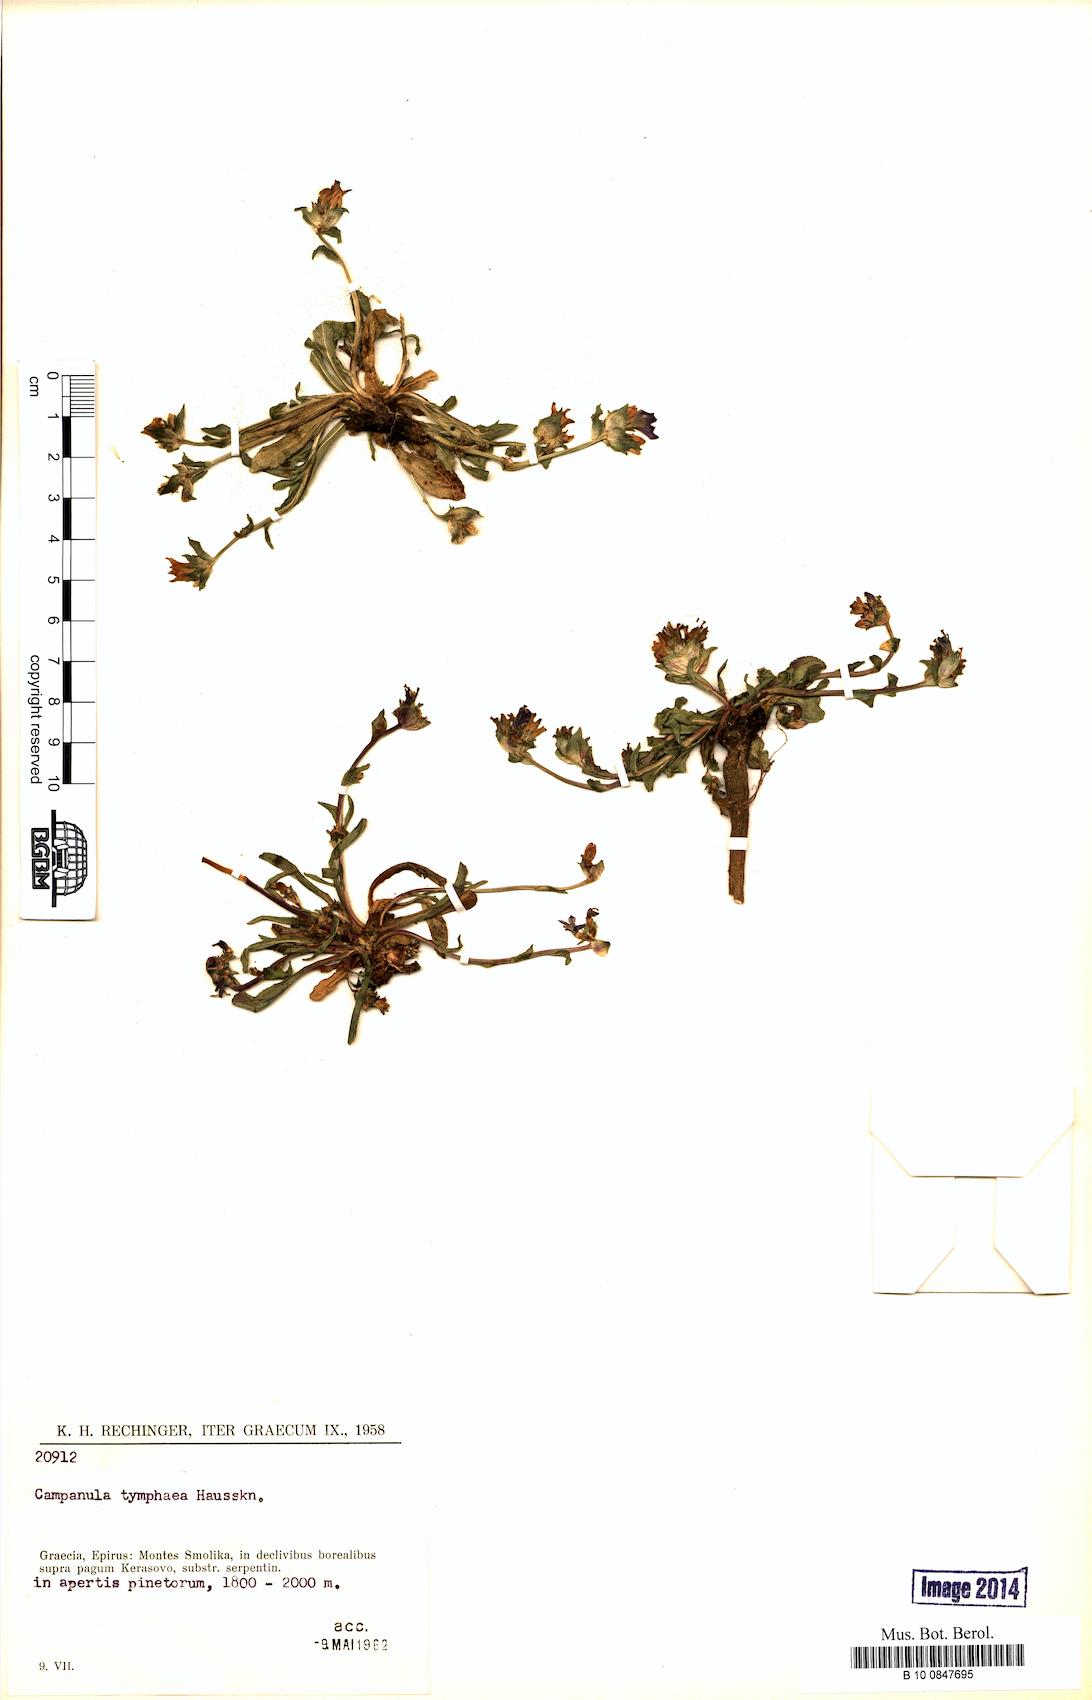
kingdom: Plantae
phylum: Tracheophyta
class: Magnoliopsida
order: Asterales
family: Campanulaceae
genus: Campanula
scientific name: Campanula tymphaea
